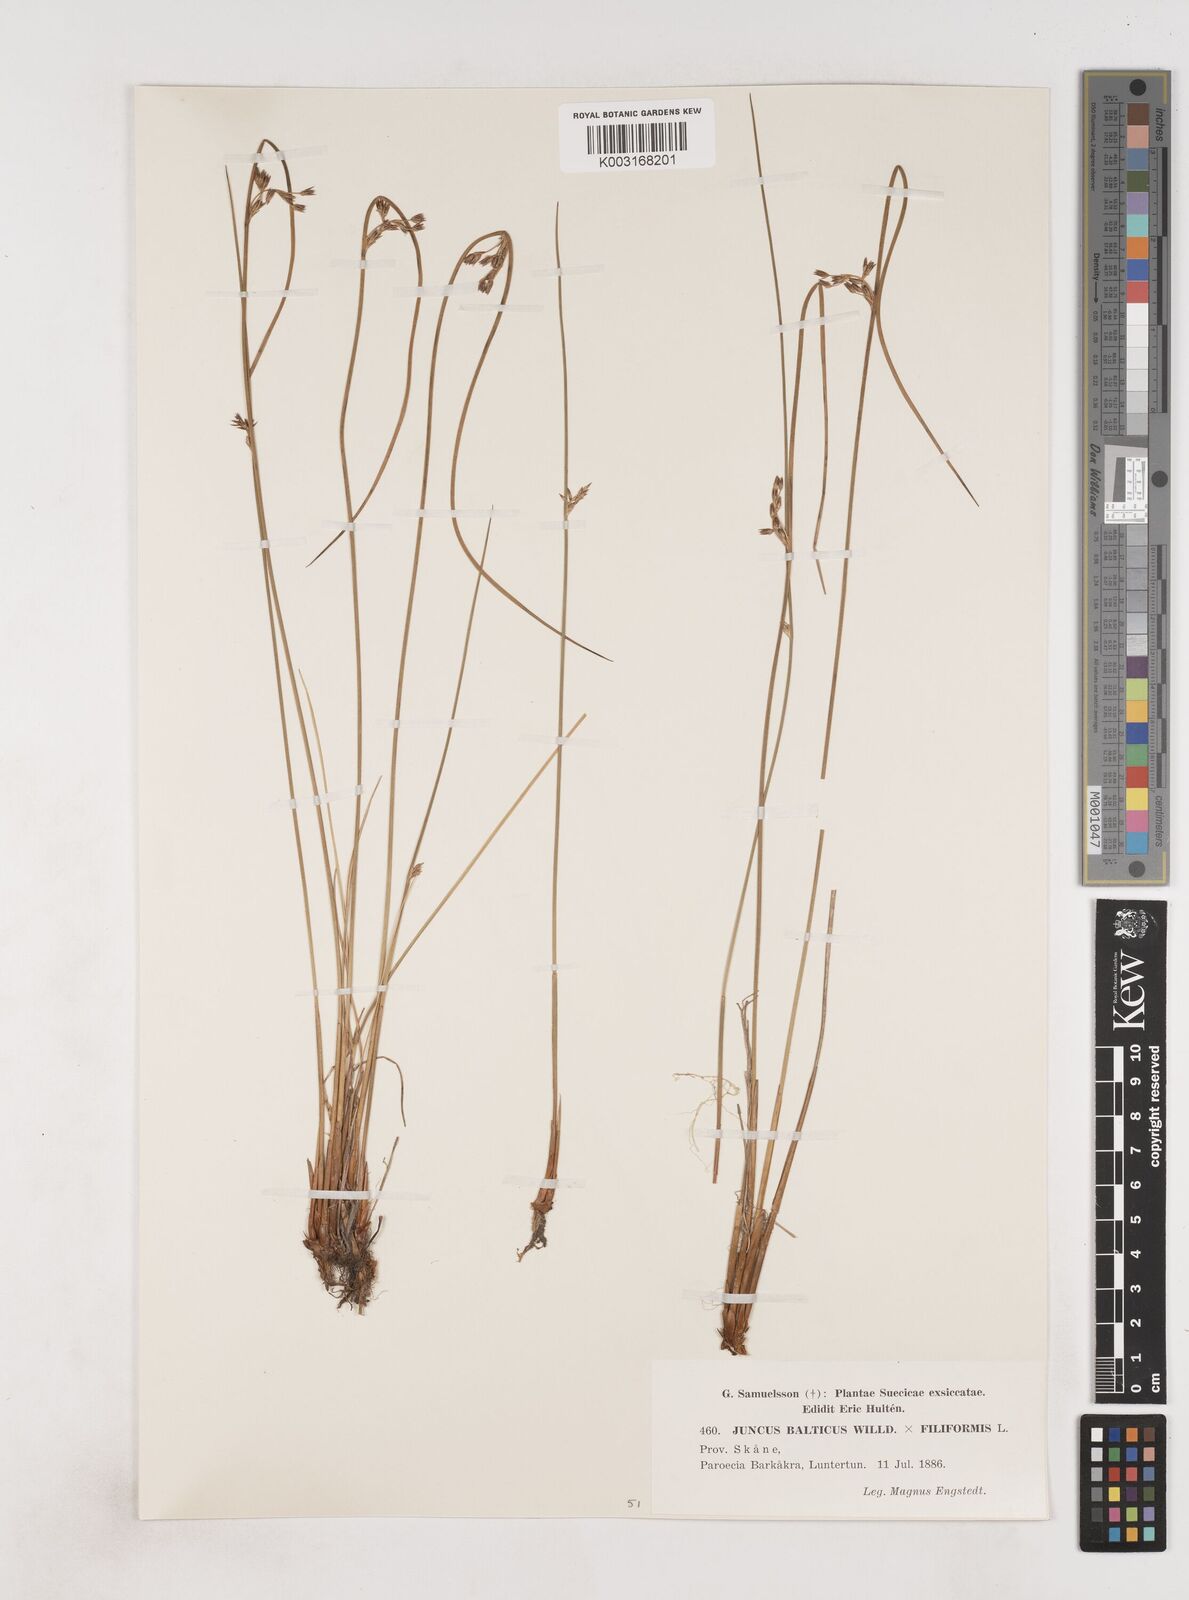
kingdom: Plantae
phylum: Tracheophyta
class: Liliopsida
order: Poales
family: Juncaceae
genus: Juncus
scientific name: Juncus balticus
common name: Baltic rush
